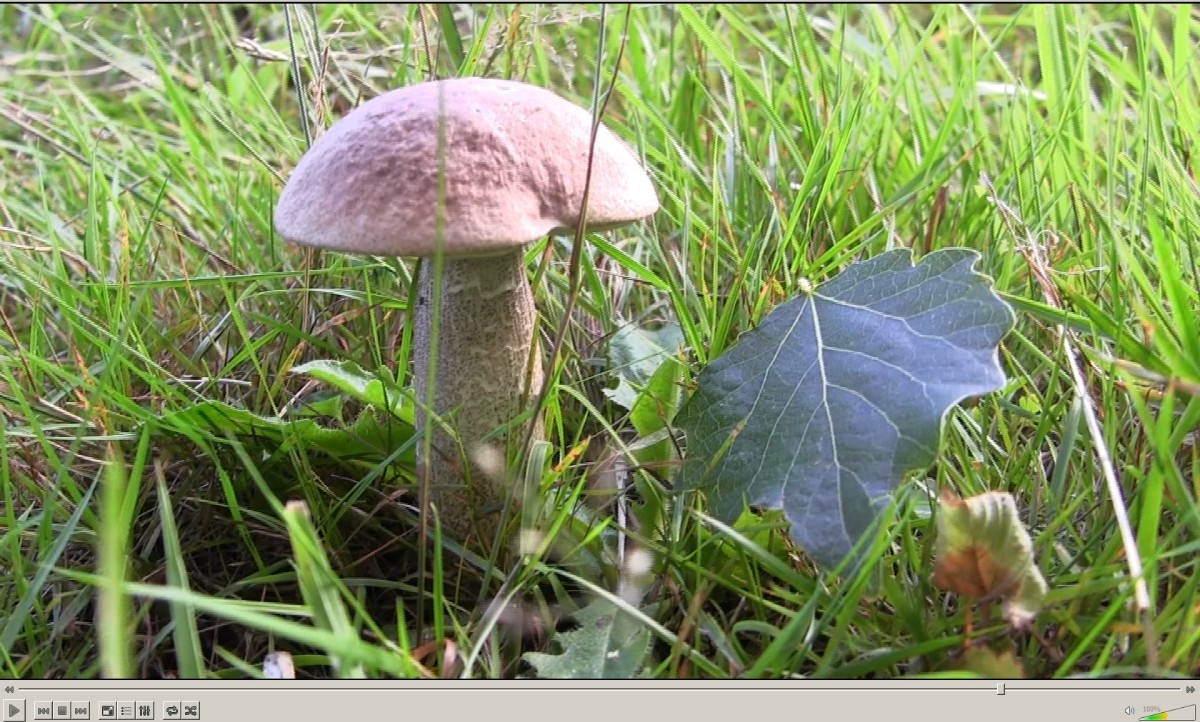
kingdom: Fungi
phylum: Basidiomycota
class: Agaricomycetes
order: Boletales
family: Boletaceae
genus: Leccinum
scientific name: Leccinum duriusculum
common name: poppel-skælrørhat
